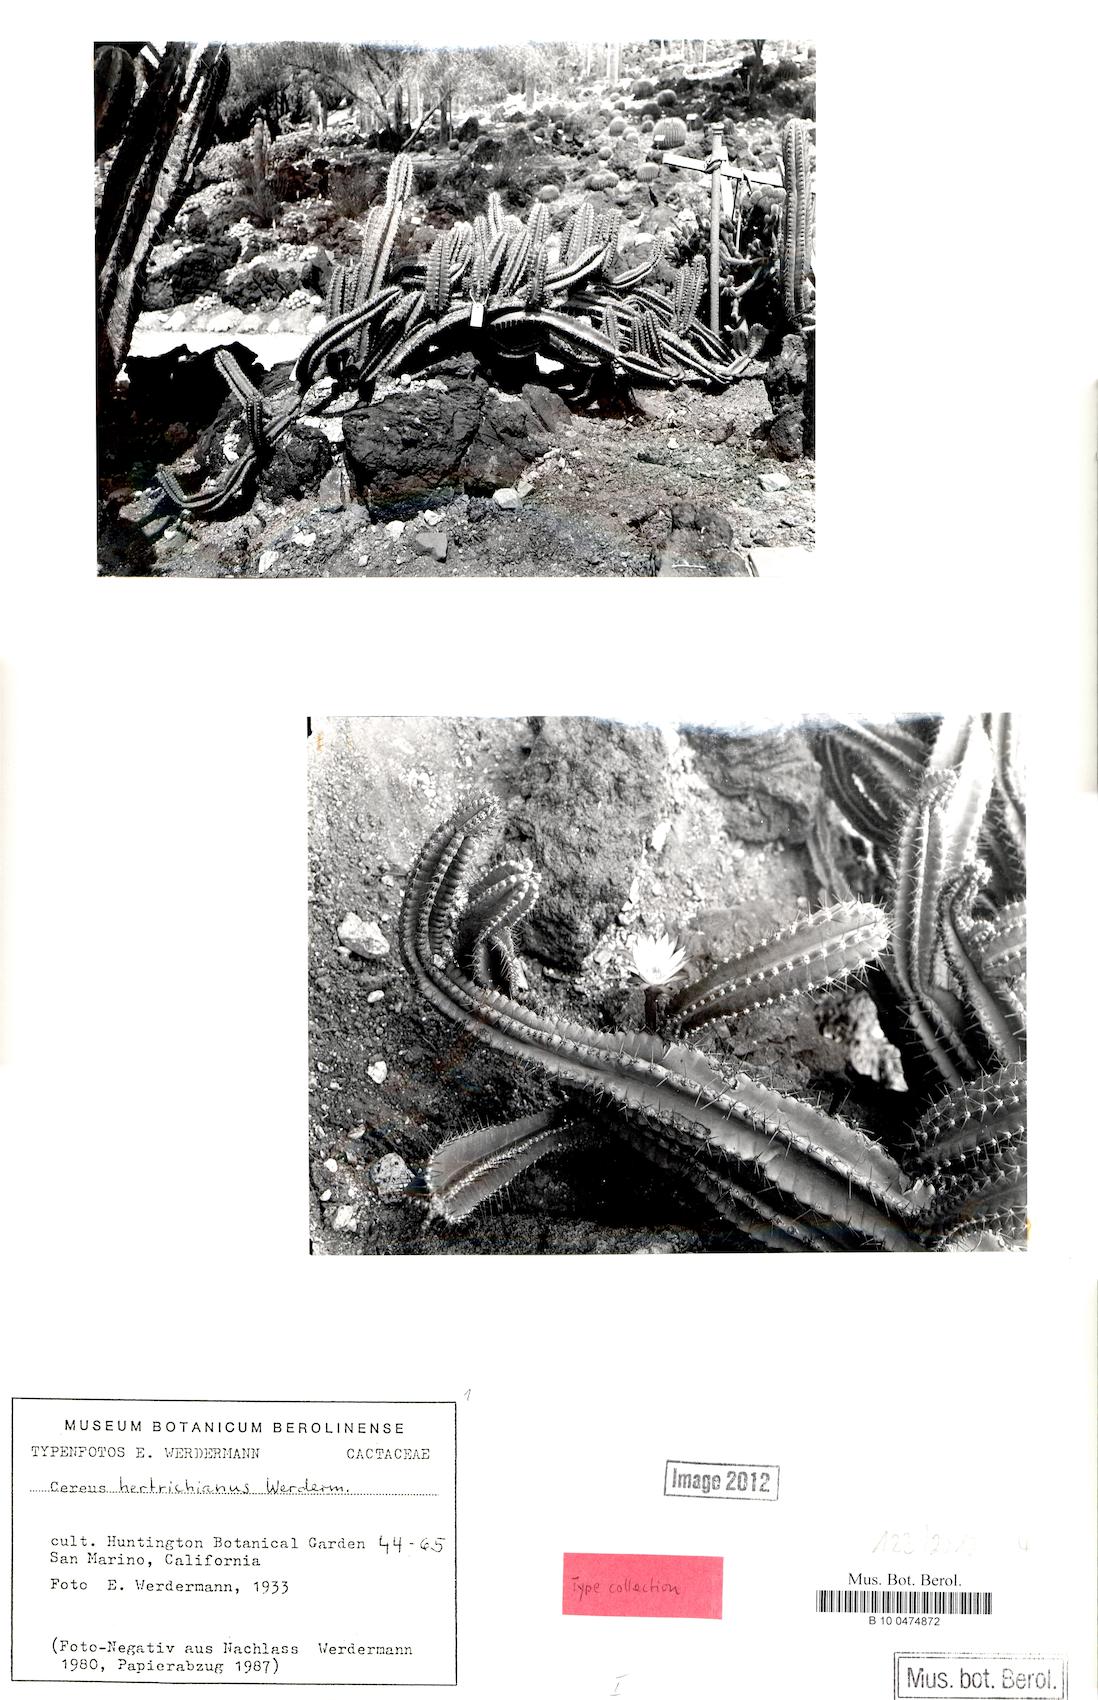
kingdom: Plantae
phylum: Tracheophyta
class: Magnoliopsida
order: Caryophyllales
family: Cactaceae
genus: Cereus
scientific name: Cereus hertrichianus
